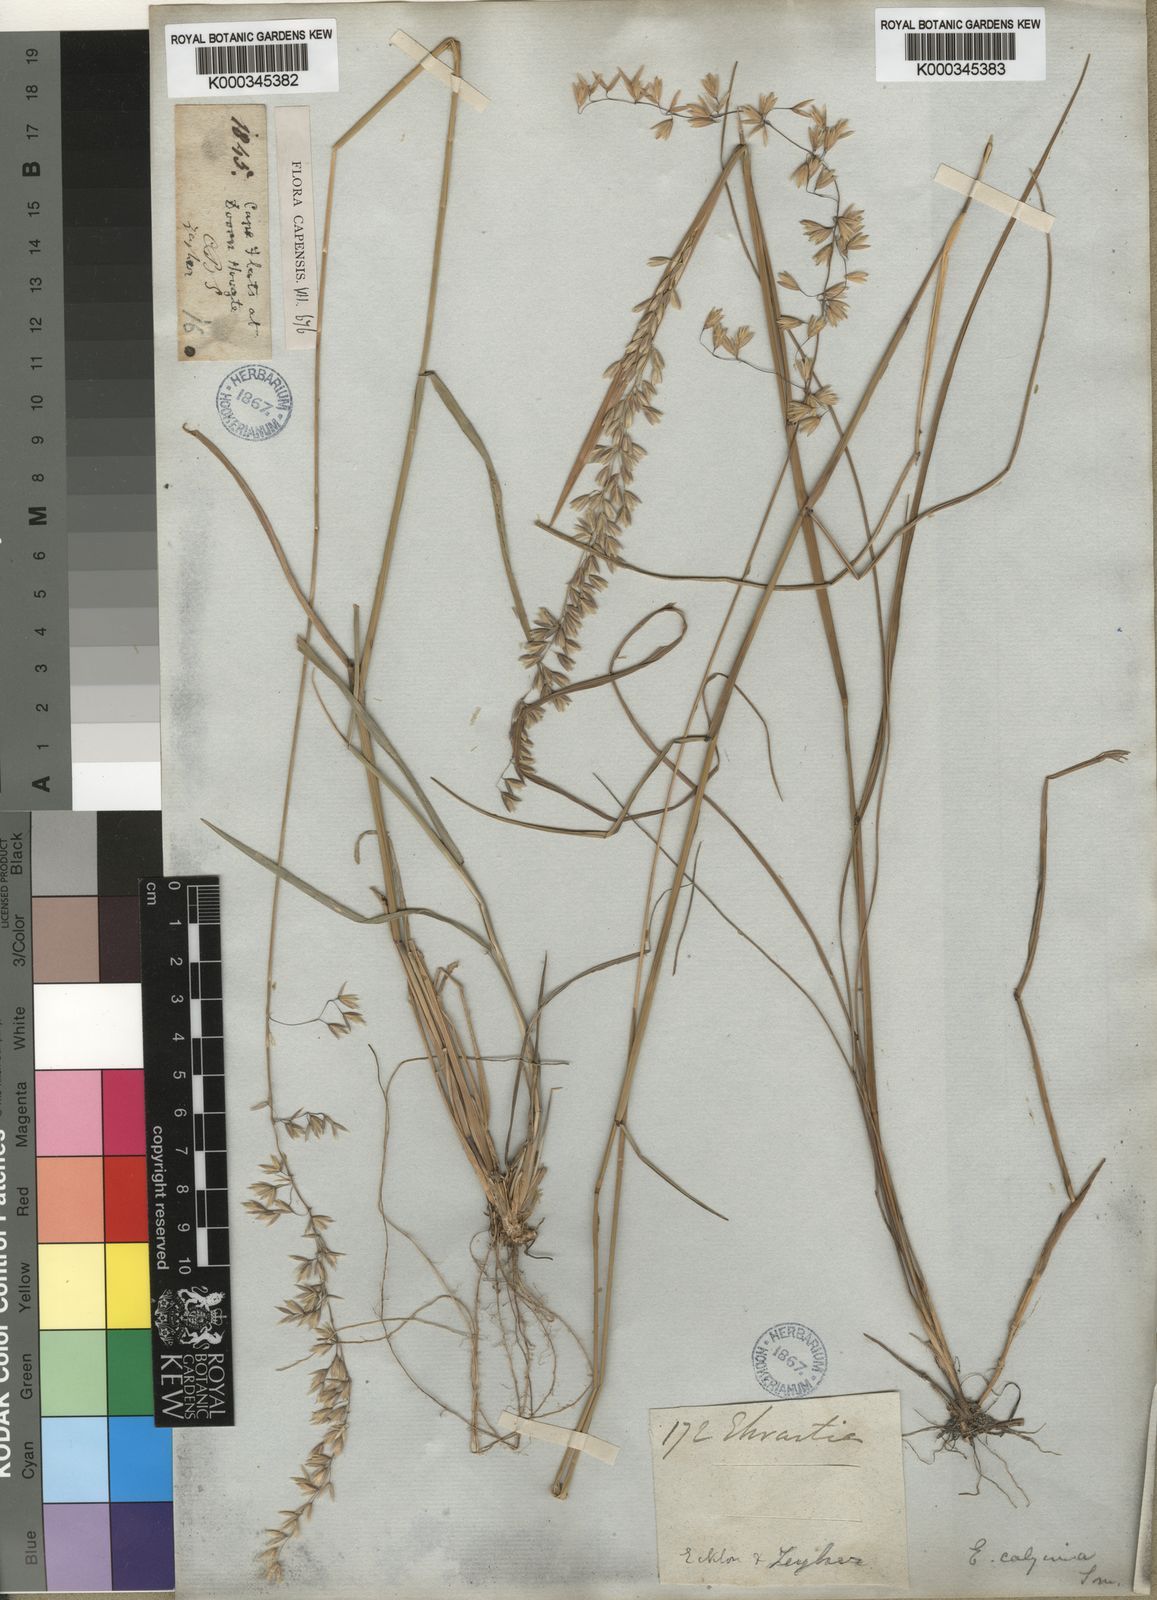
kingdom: Plantae
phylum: Tracheophyta
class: Liliopsida
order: Poales
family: Poaceae
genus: Ehrharta
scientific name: Ehrharta calycina
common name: Perennial veldtgrass
